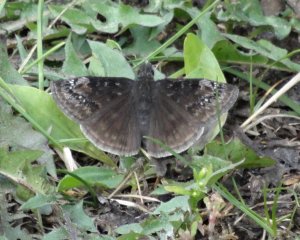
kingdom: Animalia
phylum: Arthropoda
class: Insecta
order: Lepidoptera
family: Hesperiidae
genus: Gesta
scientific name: Gesta
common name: Wild Indigo Duskywing
